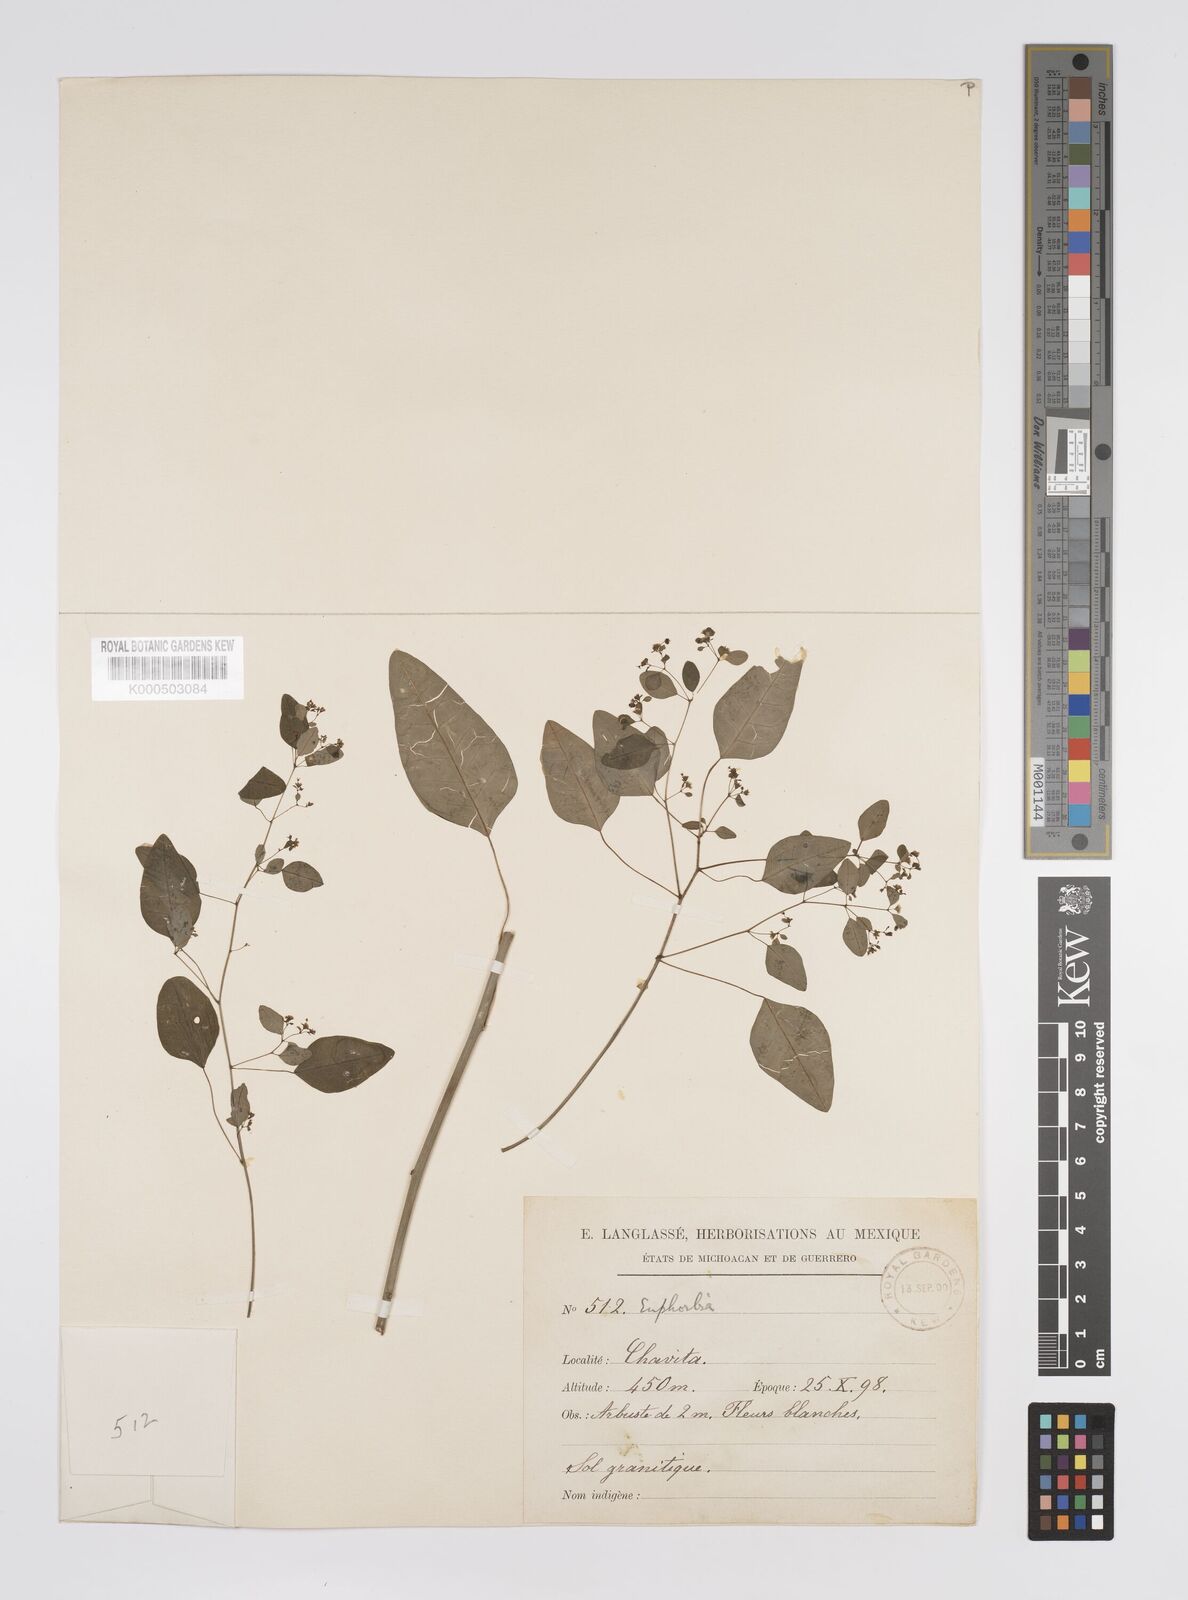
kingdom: Plantae
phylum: Tracheophyta
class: Magnoliopsida
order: Malpighiales
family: Euphorbiaceae
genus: Euphorbia
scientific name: Euphorbia
